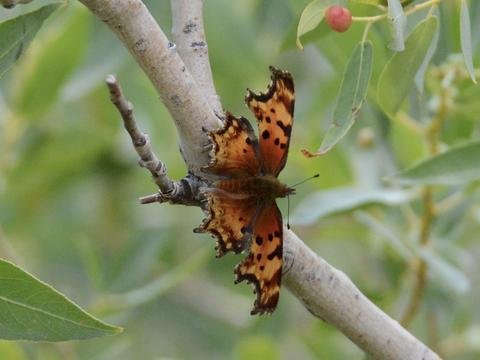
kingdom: Animalia
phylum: Arthropoda
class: Insecta
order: Lepidoptera
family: Nymphalidae
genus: Polygonia
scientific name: Polygonia gracilis
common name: Hoary Comma
